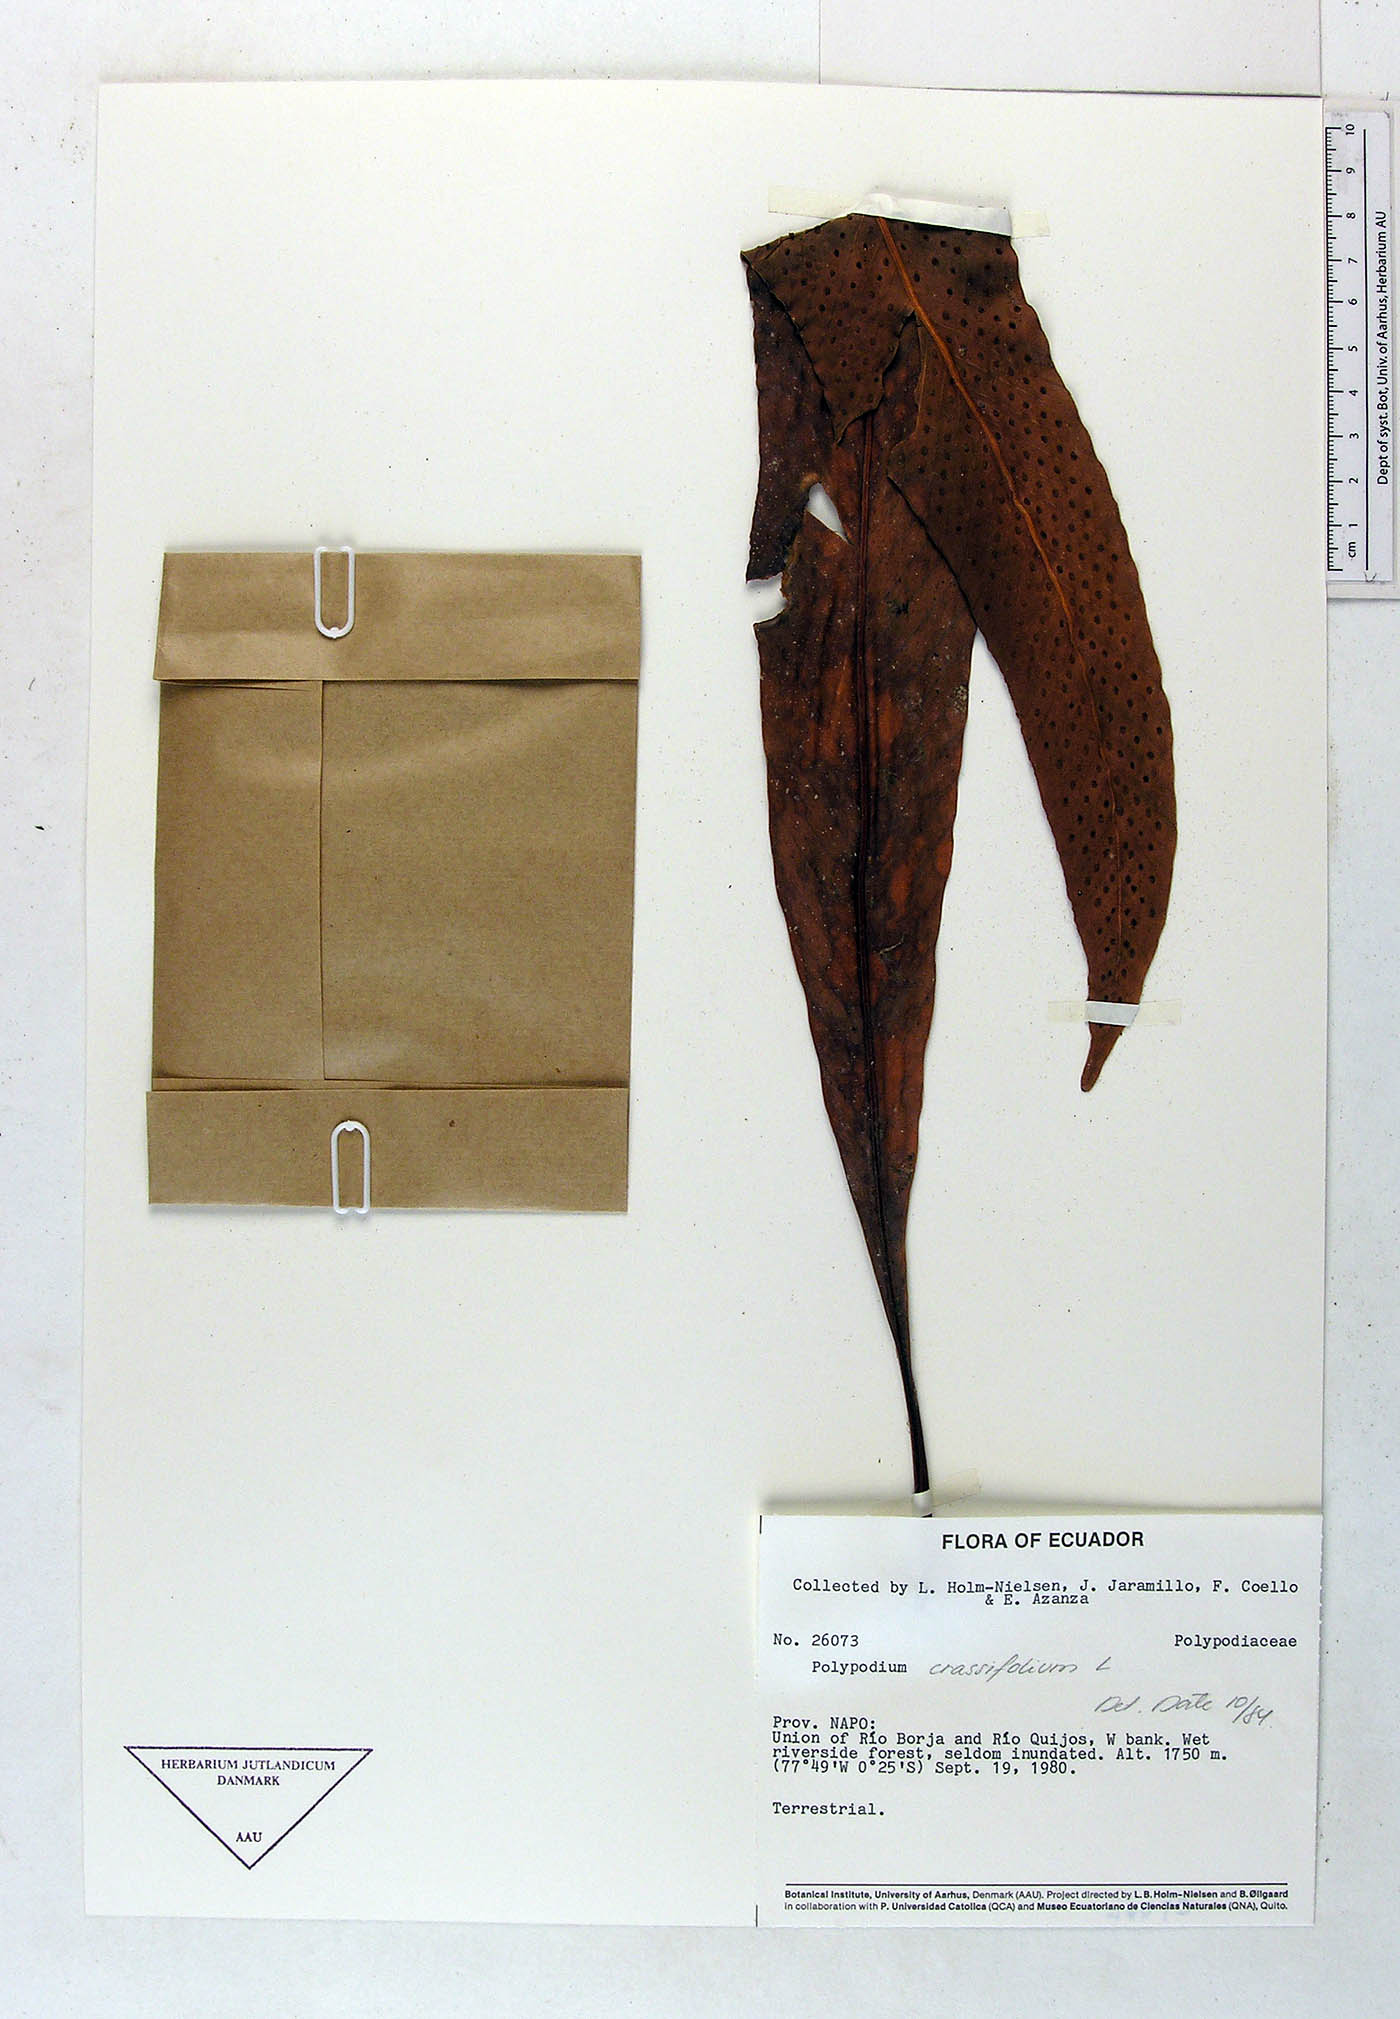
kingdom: Plantae
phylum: Tracheophyta
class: Polypodiopsida
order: Polypodiales
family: Polypodiaceae
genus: Niphidium
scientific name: Niphidium crassifolium
